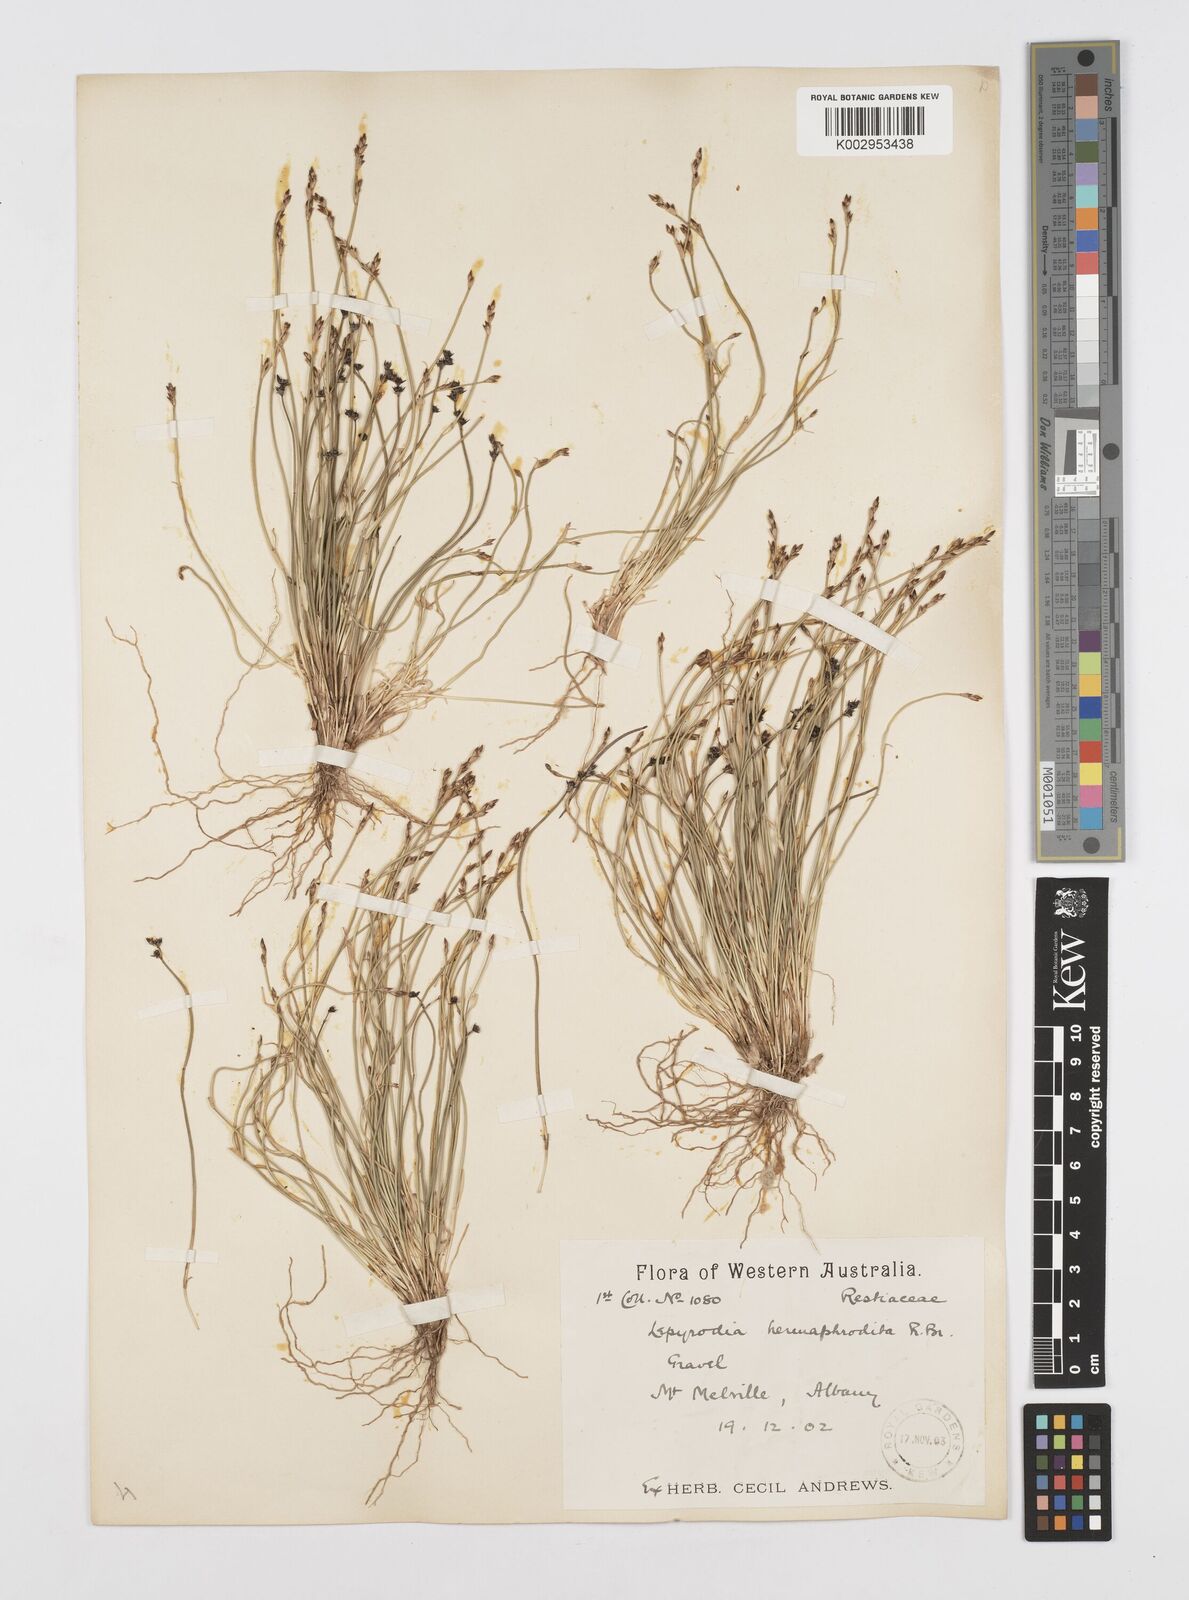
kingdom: Plantae
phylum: Tracheophyta
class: Liliopsida
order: Poales
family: Restionaceae
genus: Lepyrodia
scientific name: Lepyrodia hermaphrodita
